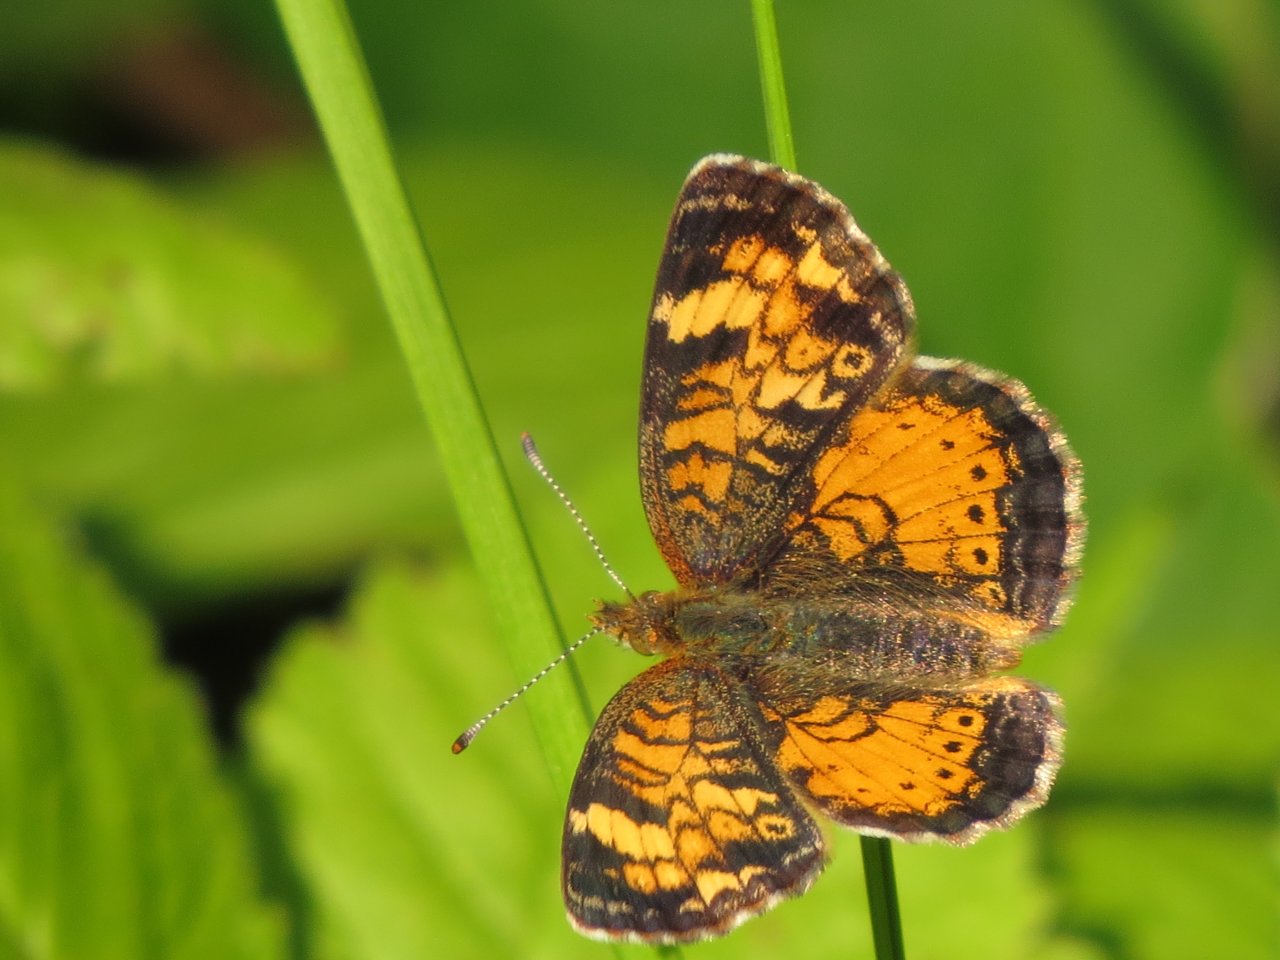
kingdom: Animalia
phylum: Arthropoda
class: Insecta
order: Lepidoptera
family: Nymphalidae
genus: Phyciodes
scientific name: Phyciodes tharos
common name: Northern Crescent
